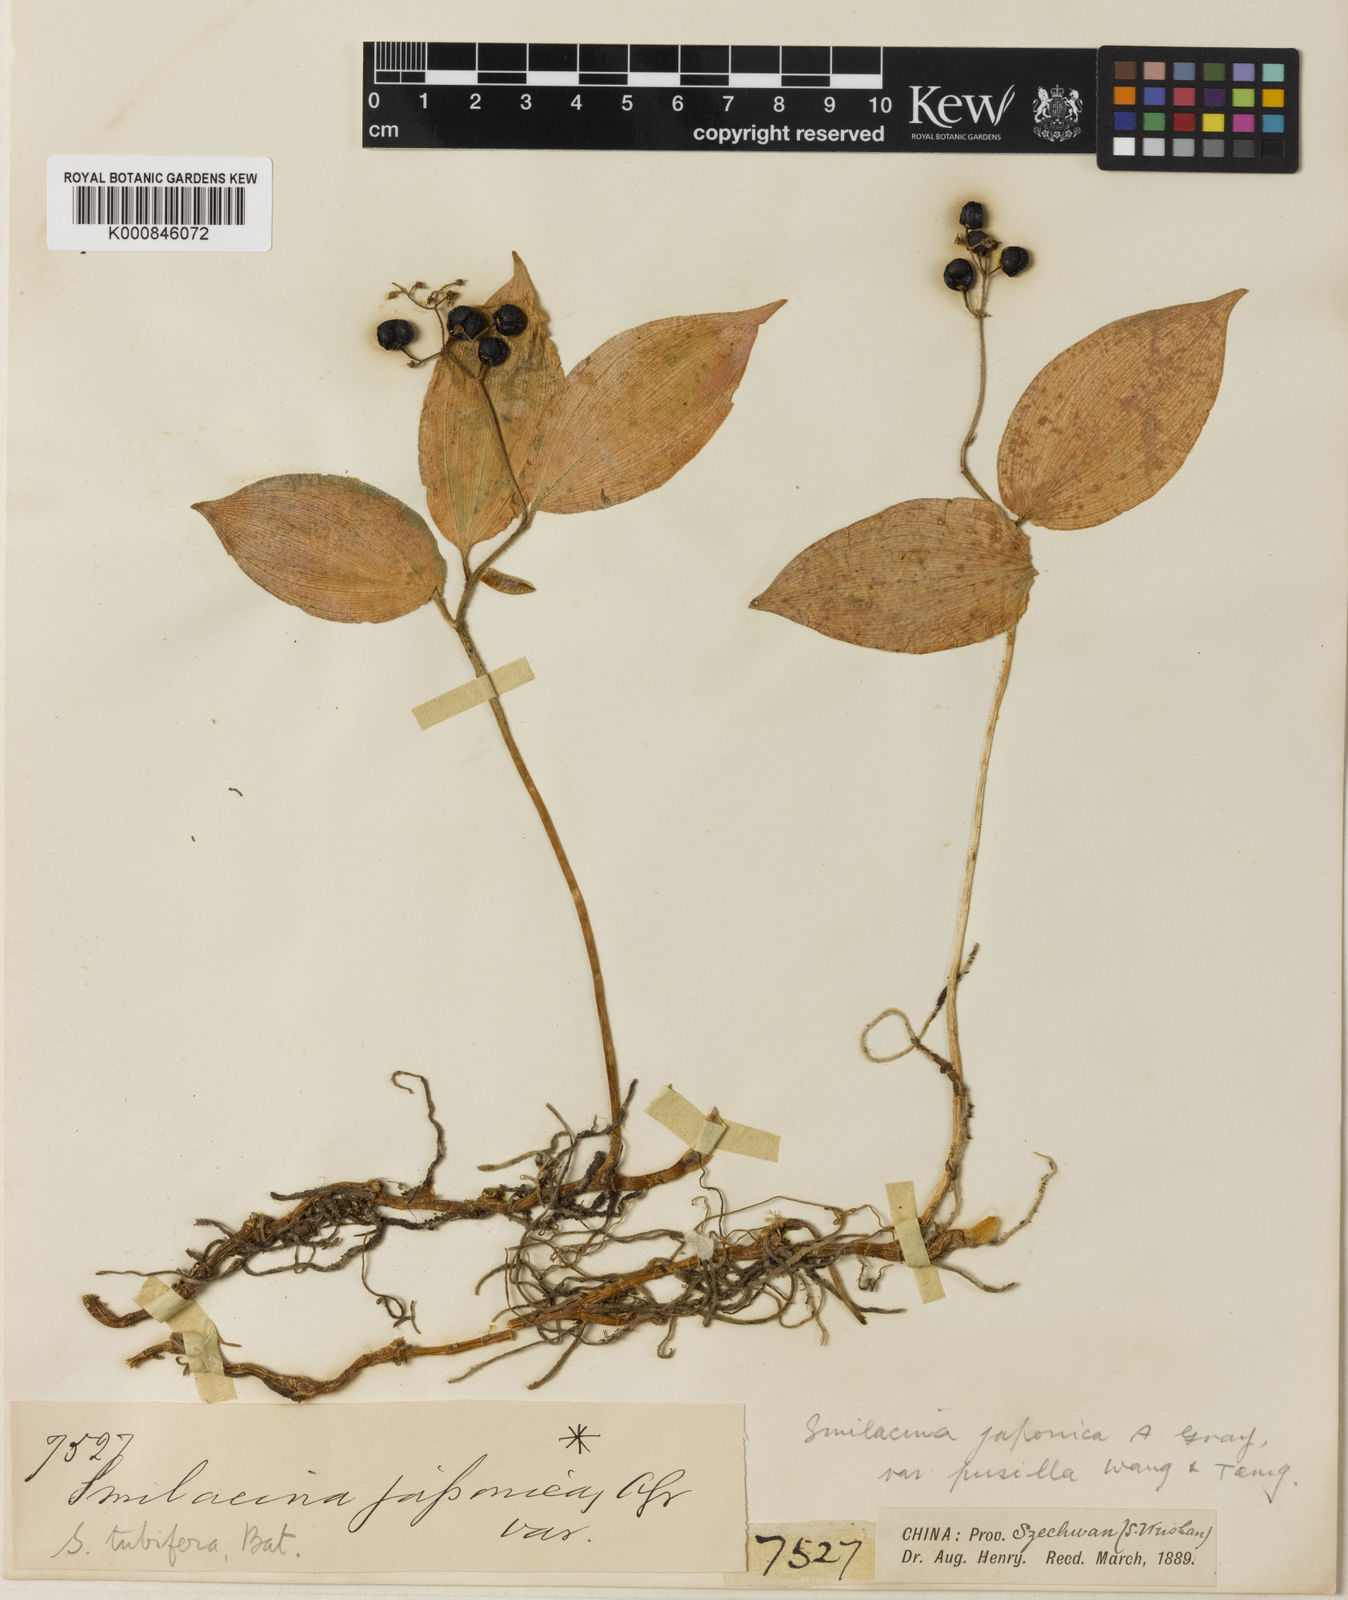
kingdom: Plantae
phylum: Tracheophyta
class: Liliopsida
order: Asparagales
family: Asparagaceae
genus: Maianthemum
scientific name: Maianthemum japonicum
